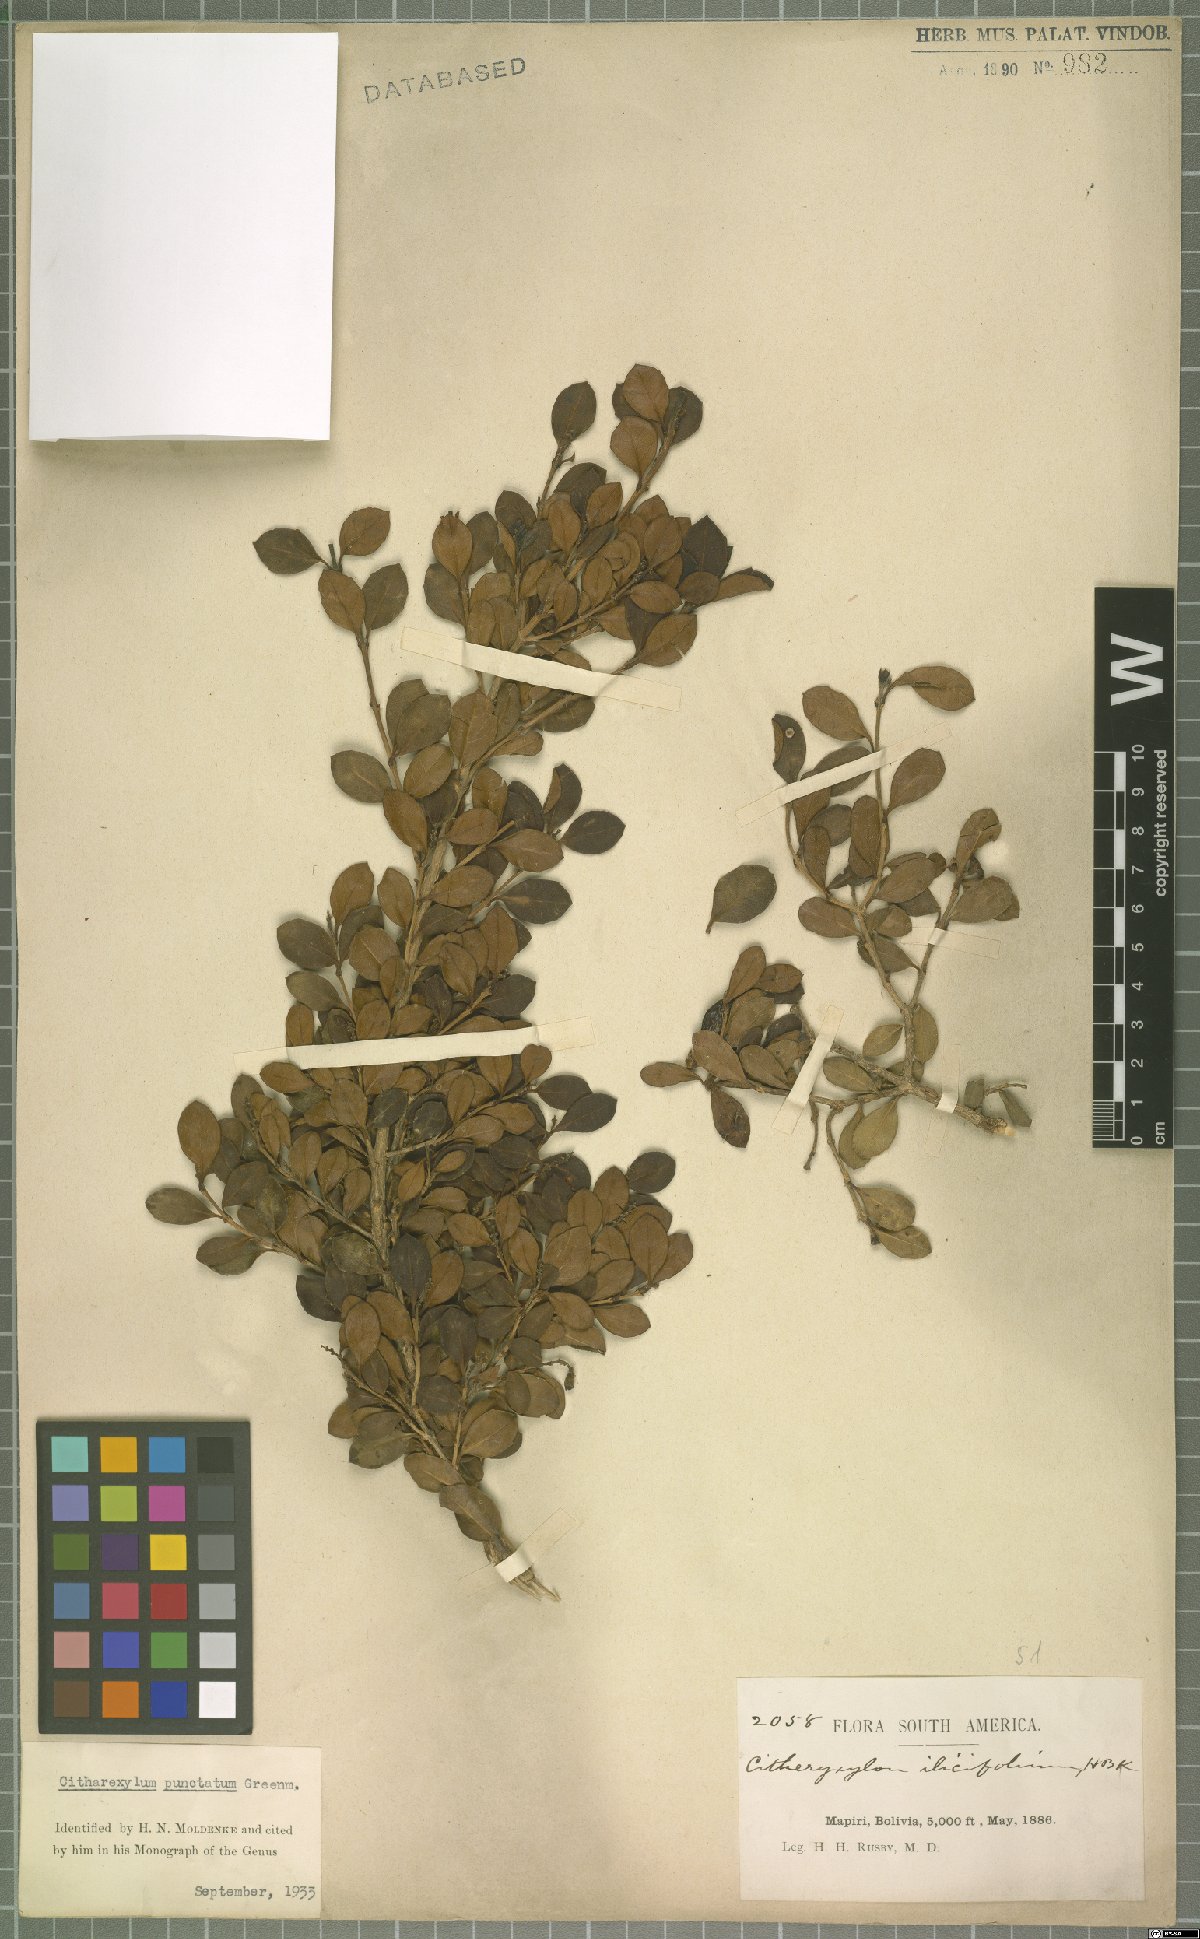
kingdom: Plantae
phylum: Tracheophyta
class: Magnoliopsida
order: Lamiales
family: Verbenaceae
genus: Citharexylum
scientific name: Citharexylum dentatum
